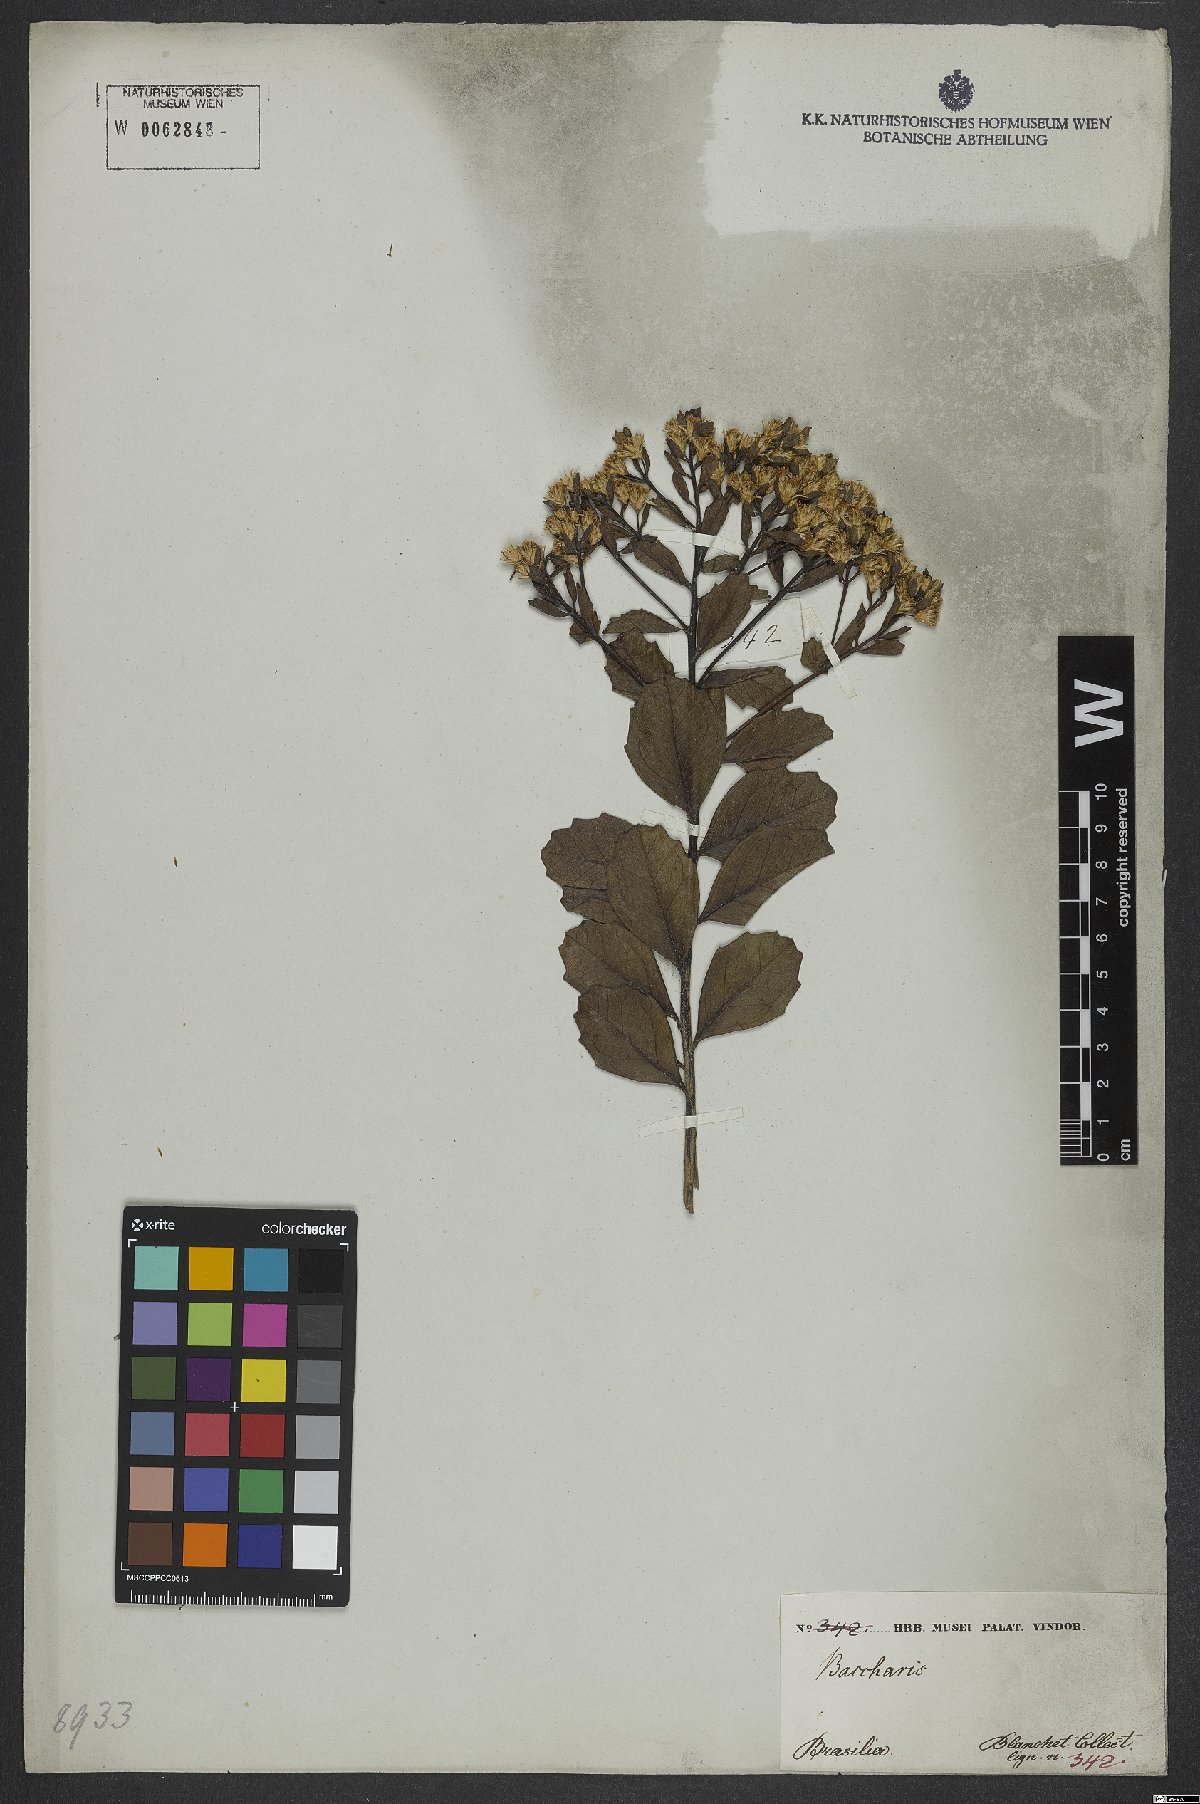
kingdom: Plantae
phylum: Tracheophyta
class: Magnoliopsida
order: Asterales
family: Asteraceae
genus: Baccharis
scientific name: Baccharis
